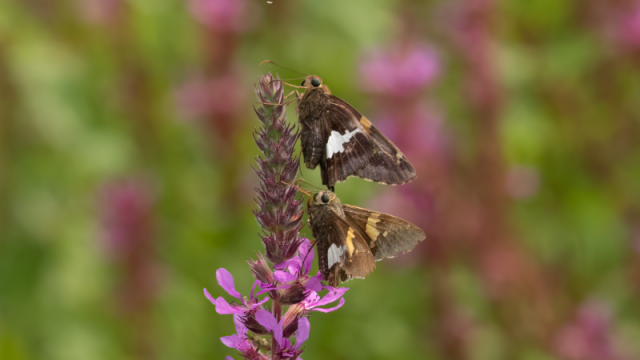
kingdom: Animalia
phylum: Arthropoda
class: Insecta
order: Lepidoptera
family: Hesperiidae
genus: Epargyreus
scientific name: Epargyreus clarus
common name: Silver-spotted Skipper
